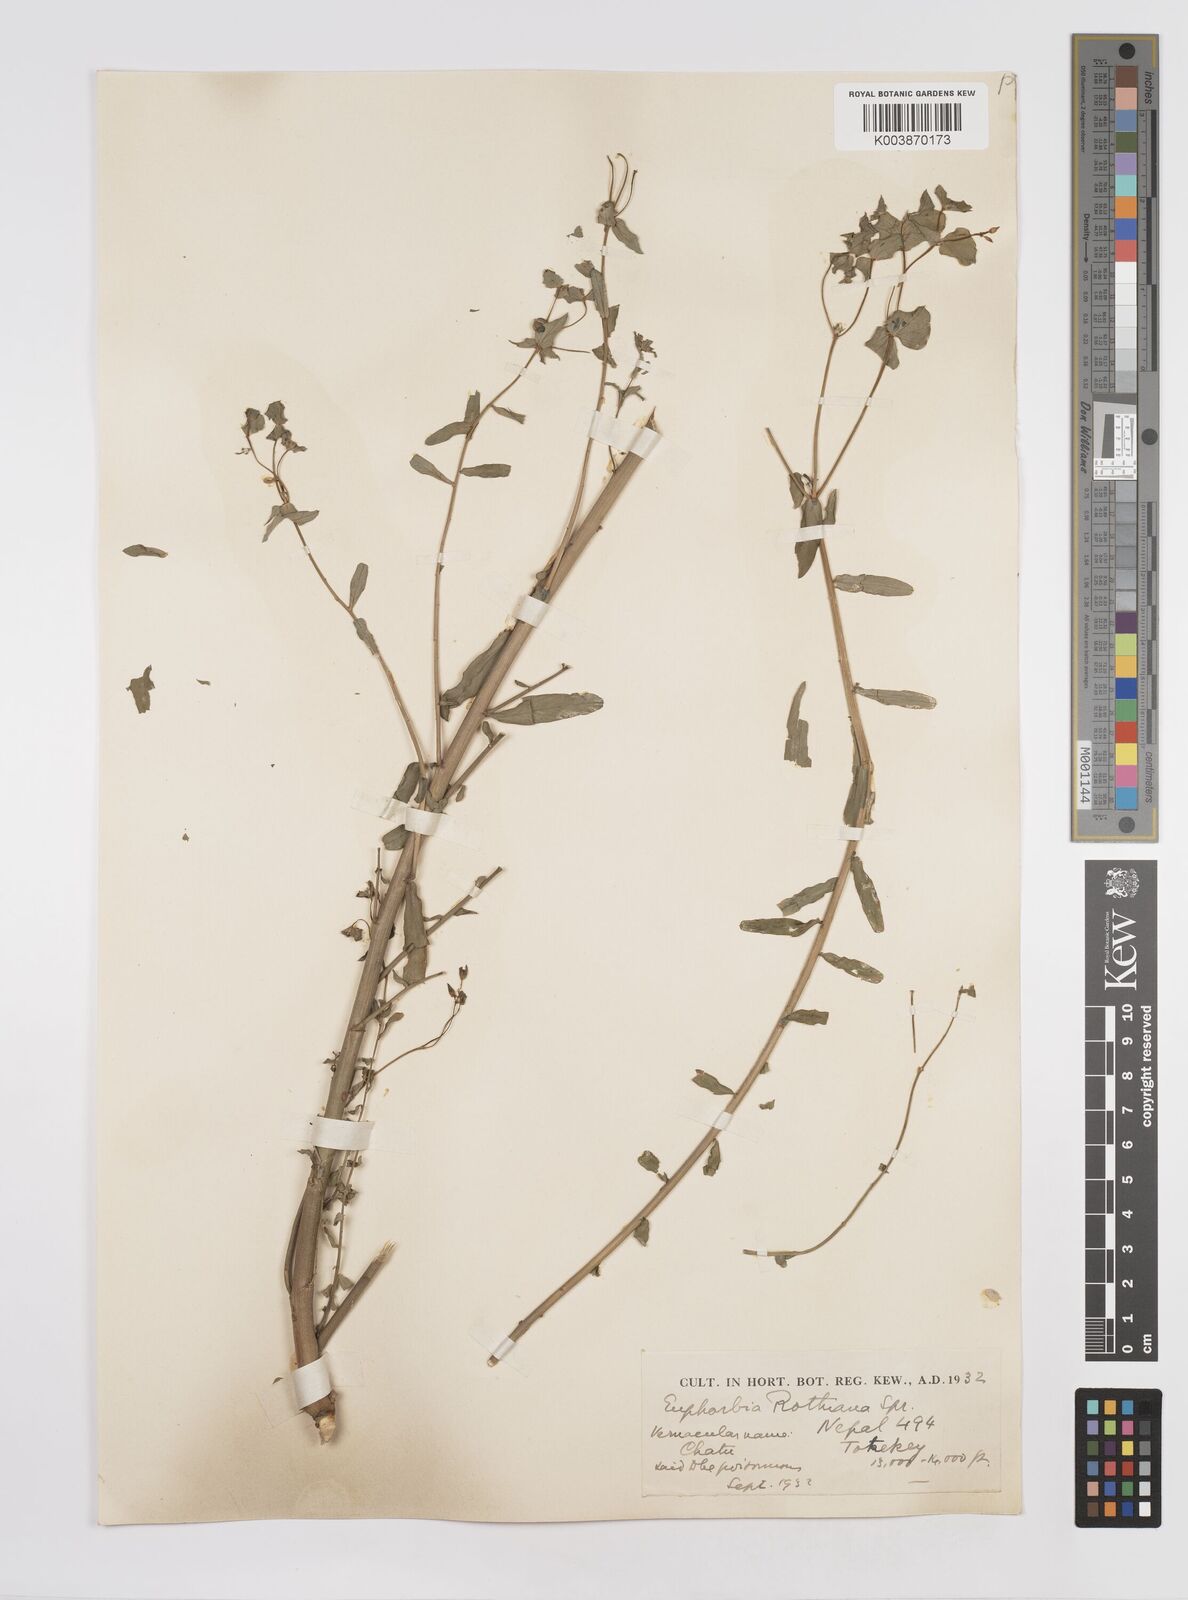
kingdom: Plantae
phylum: Tracheophyta
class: Magnoliopsida
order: Malpighiales
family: Euphorbiaceae
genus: Euphorbia
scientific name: Euphorbia rothiana
